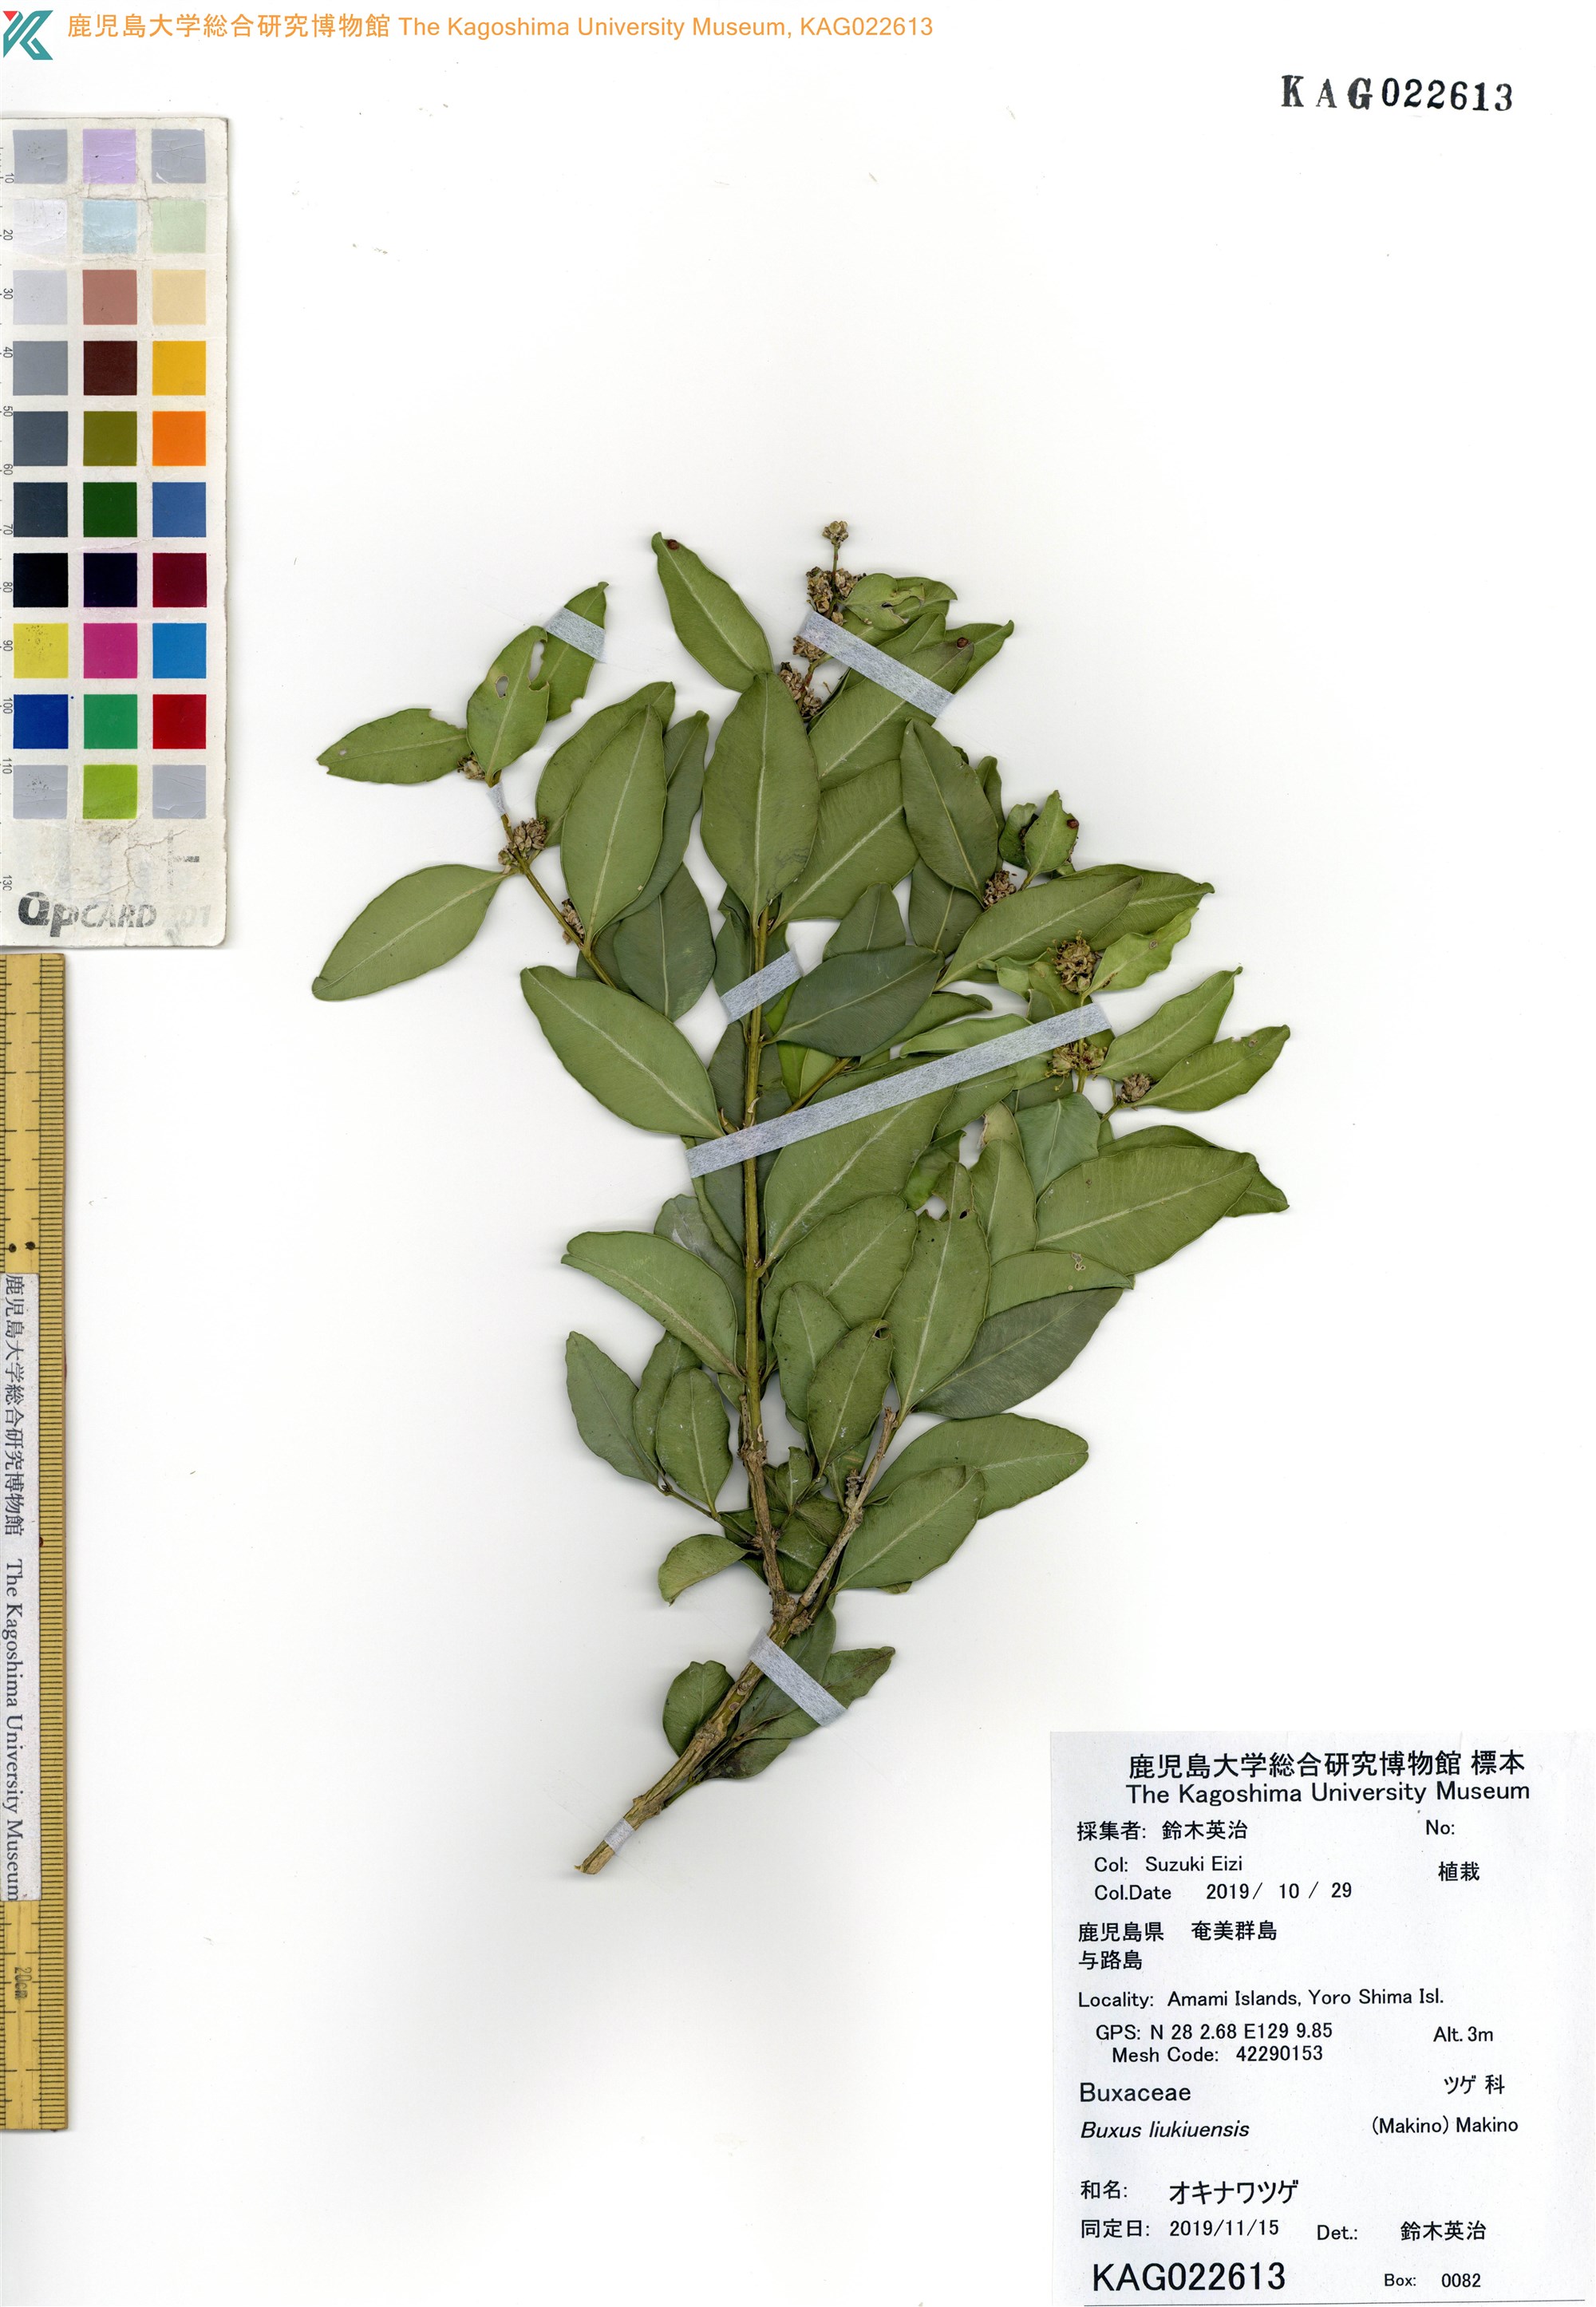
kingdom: Plantae
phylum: Tracheophyta
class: Magnoliopsida
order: Buxales
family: Buxaceae
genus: Buxus
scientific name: Buxus liukiuensis
